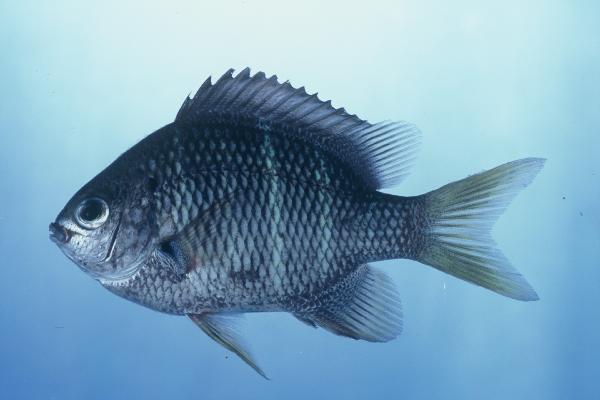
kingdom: Animalia
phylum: Chordata
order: Perciformes
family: Pomacentridae
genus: Abudefduf
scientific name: Abudefduf notatus
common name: Yellow-tail sergeant
